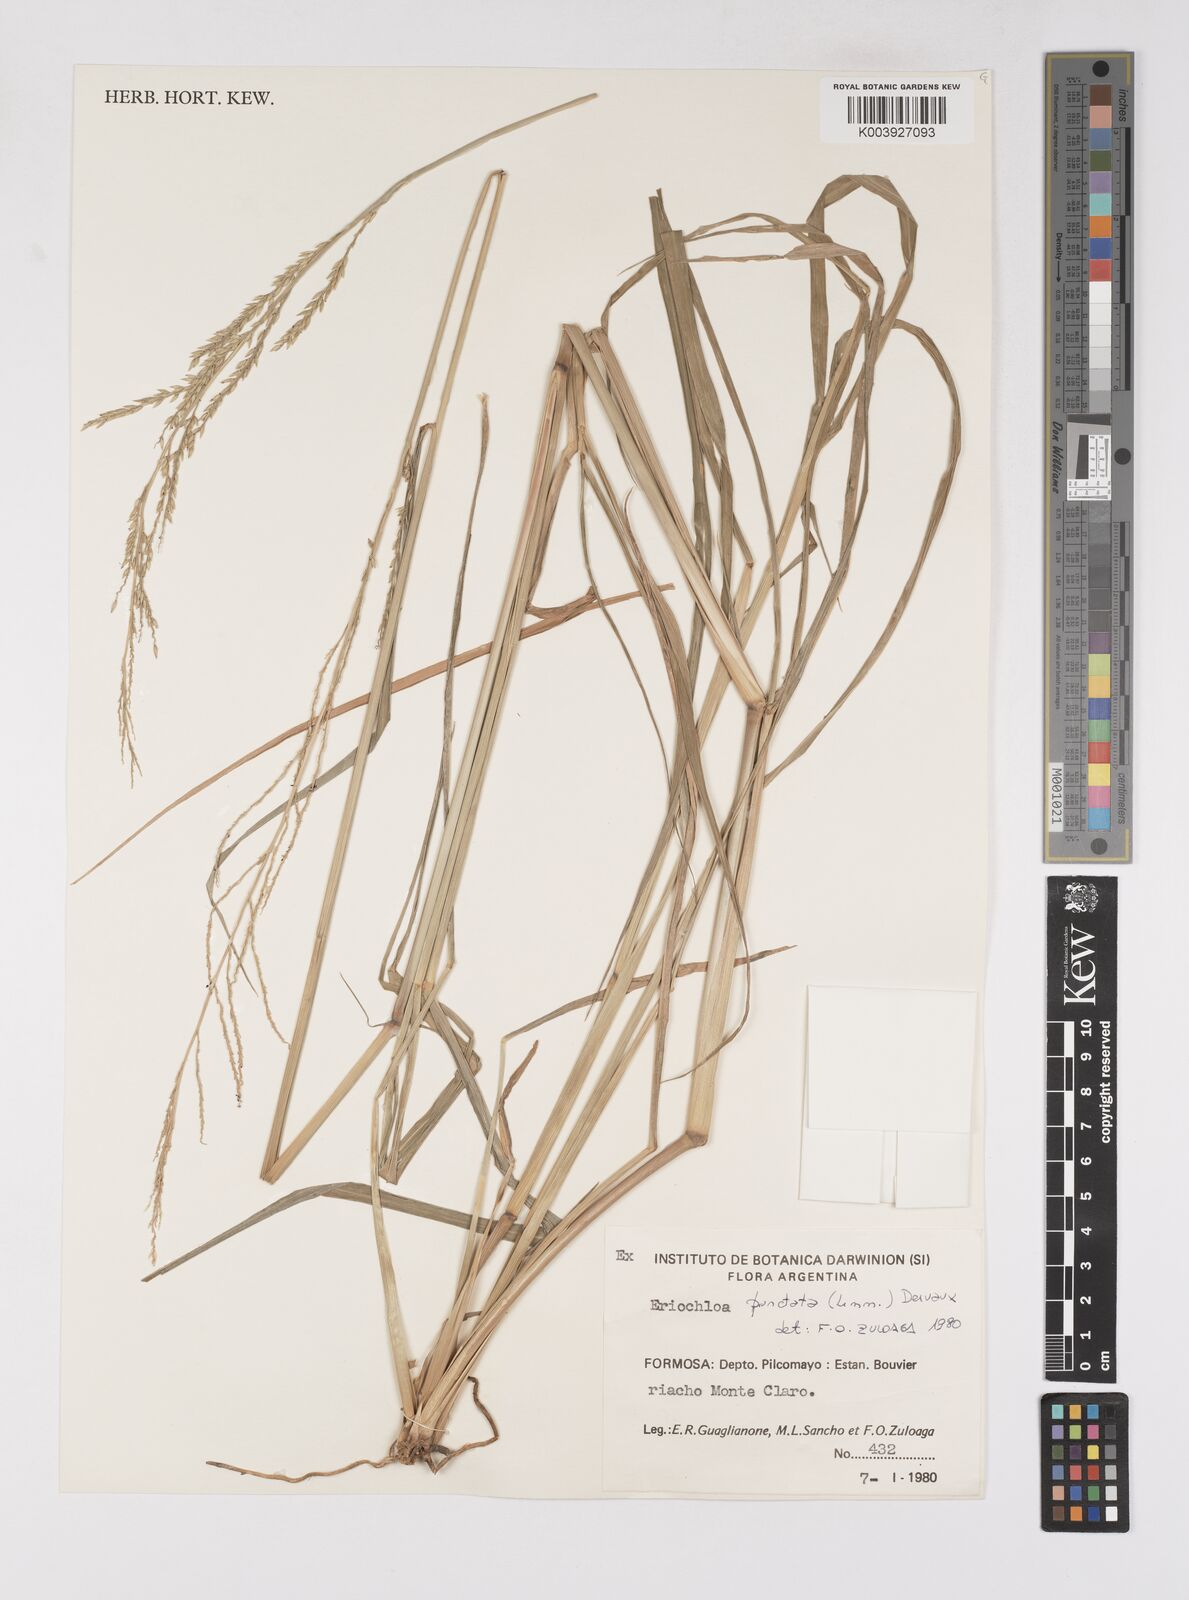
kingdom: Plantae
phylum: Tracheophyta
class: Liliopsida
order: Poales
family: Poaceae
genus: Eriochloa
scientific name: Eriochloa punctata
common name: Louisiana cupgrass
